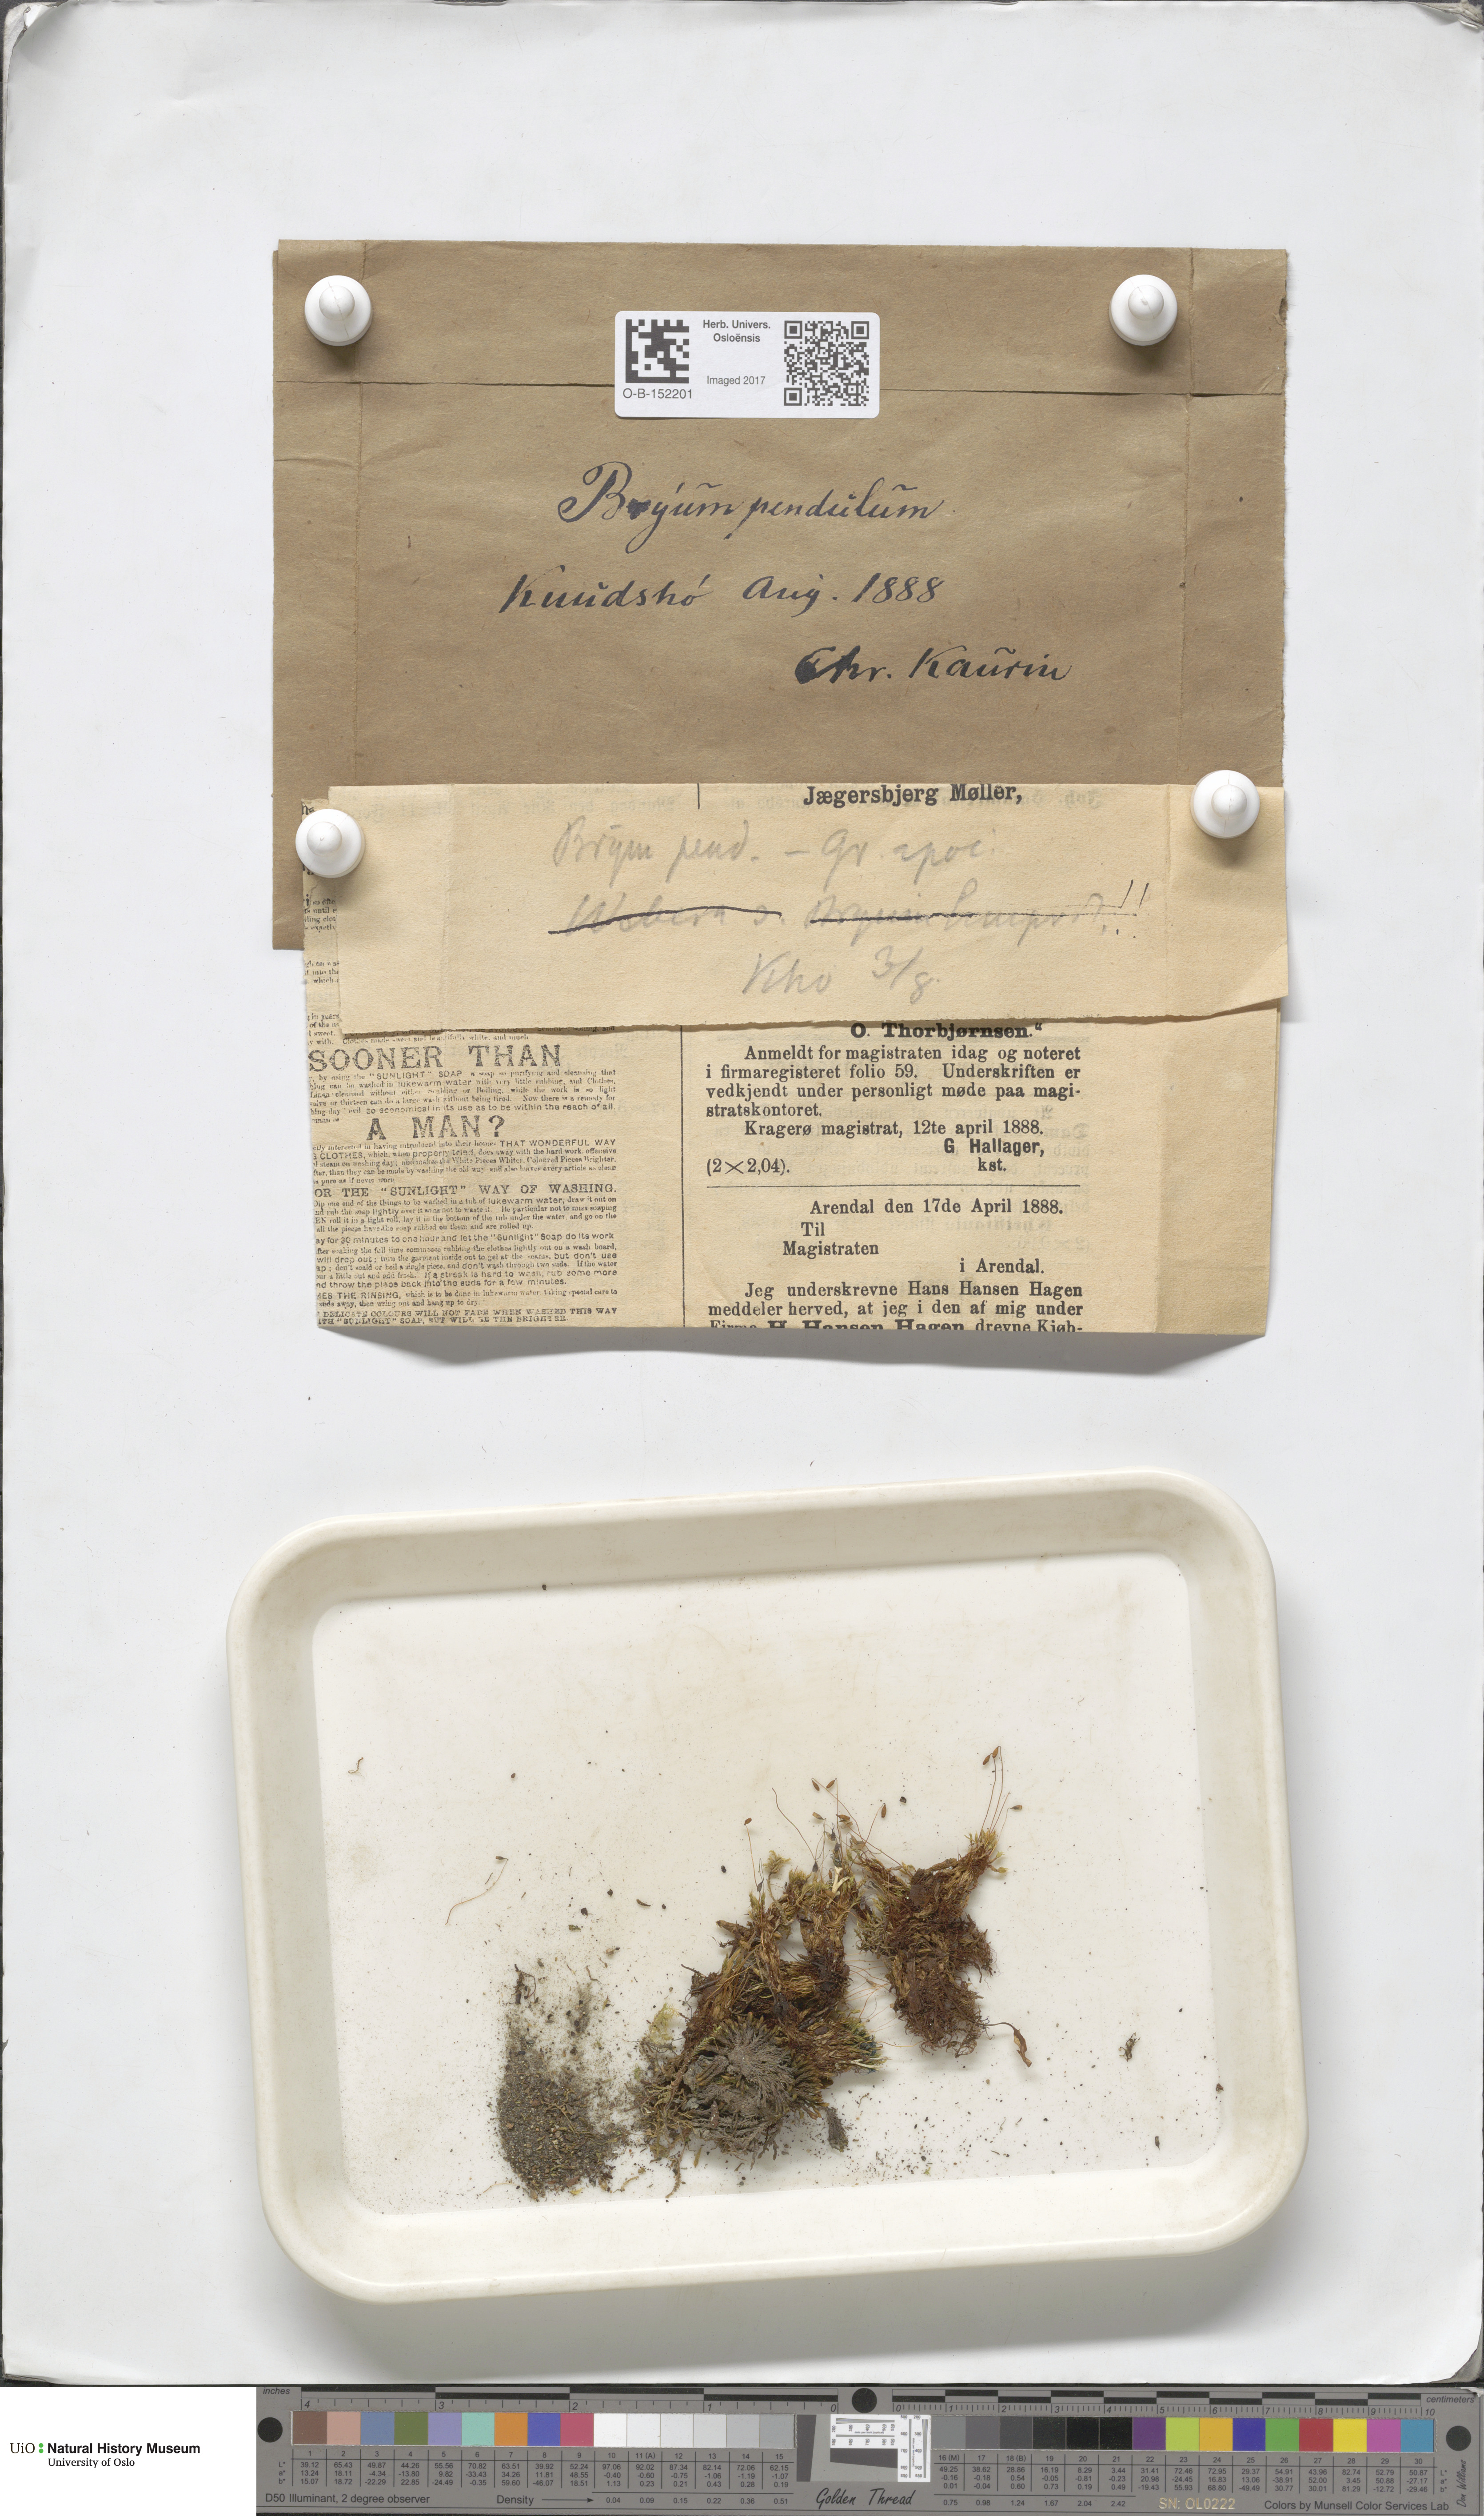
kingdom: Plantae
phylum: Bryophyta
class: Bryopsida
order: Bryales
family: Bryaceae
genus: Ptychostomum
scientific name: Ptychostomum compactum
